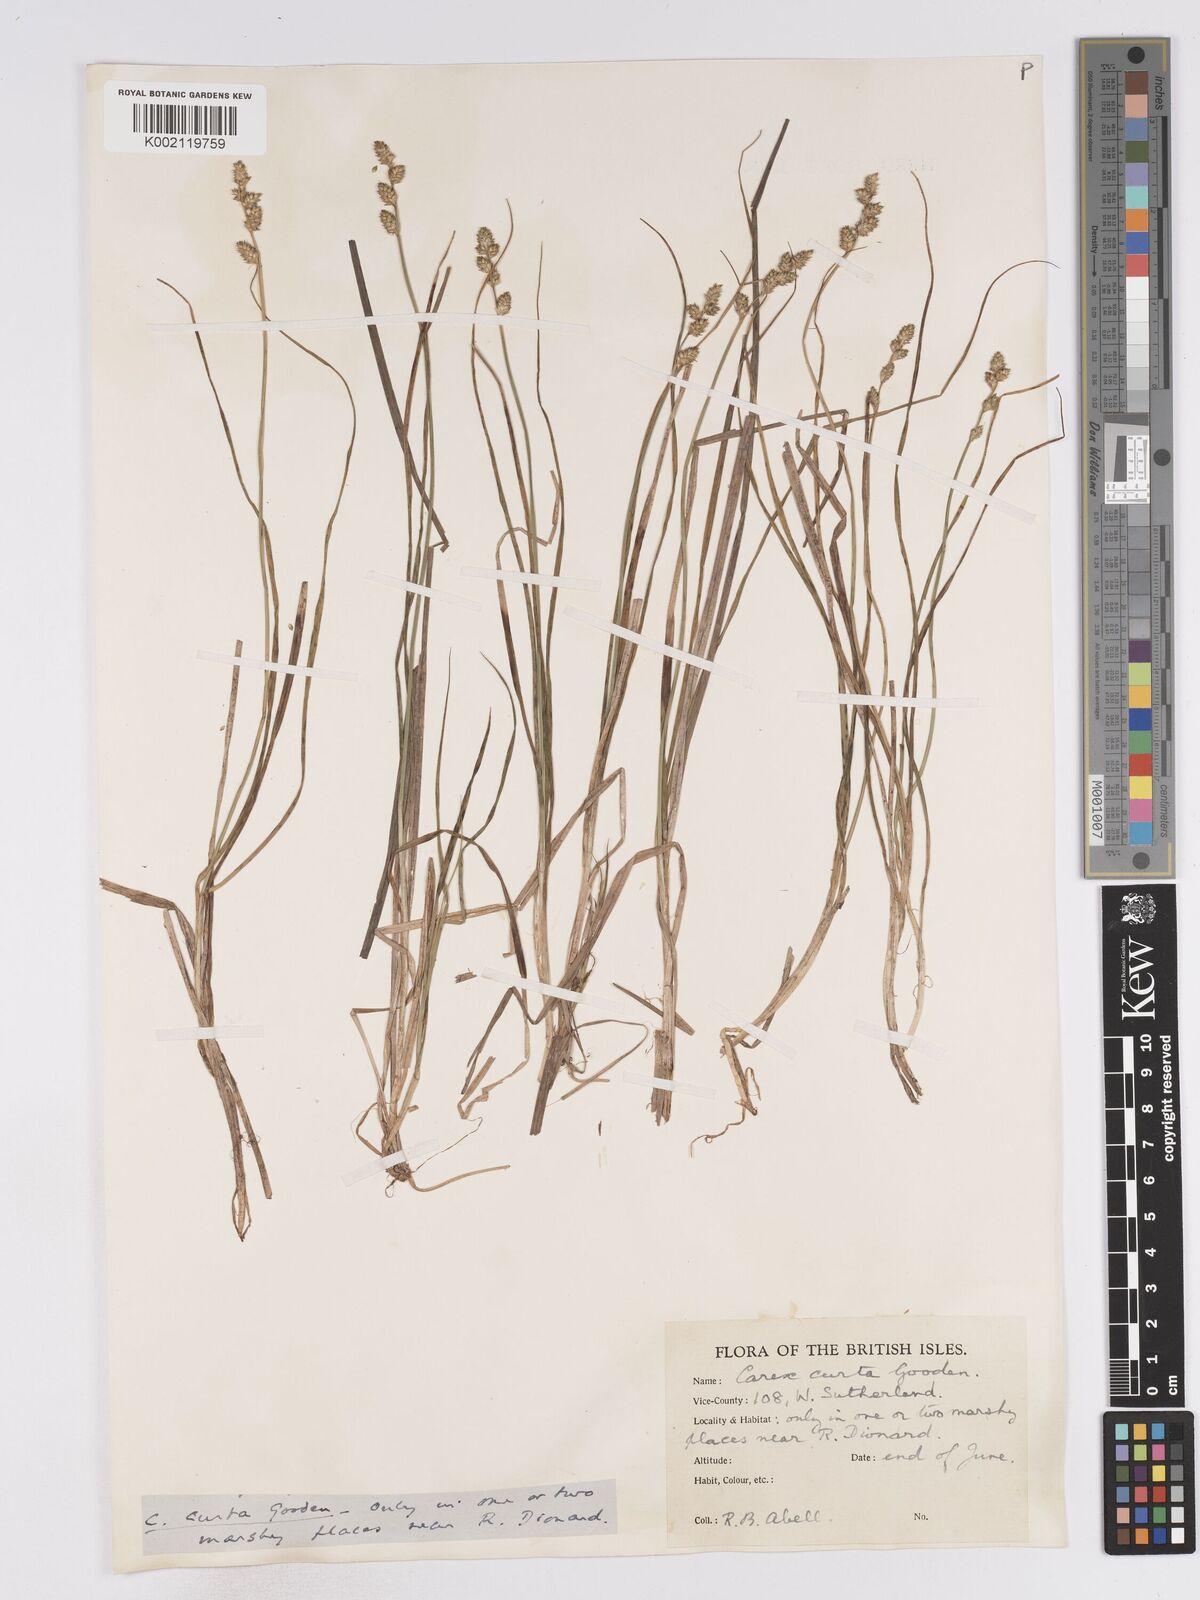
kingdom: Plantae
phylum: Tracheophyta
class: Liliopsida
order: Poales
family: Cyperaceae
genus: Carex
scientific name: Carex curta
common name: White sedge
